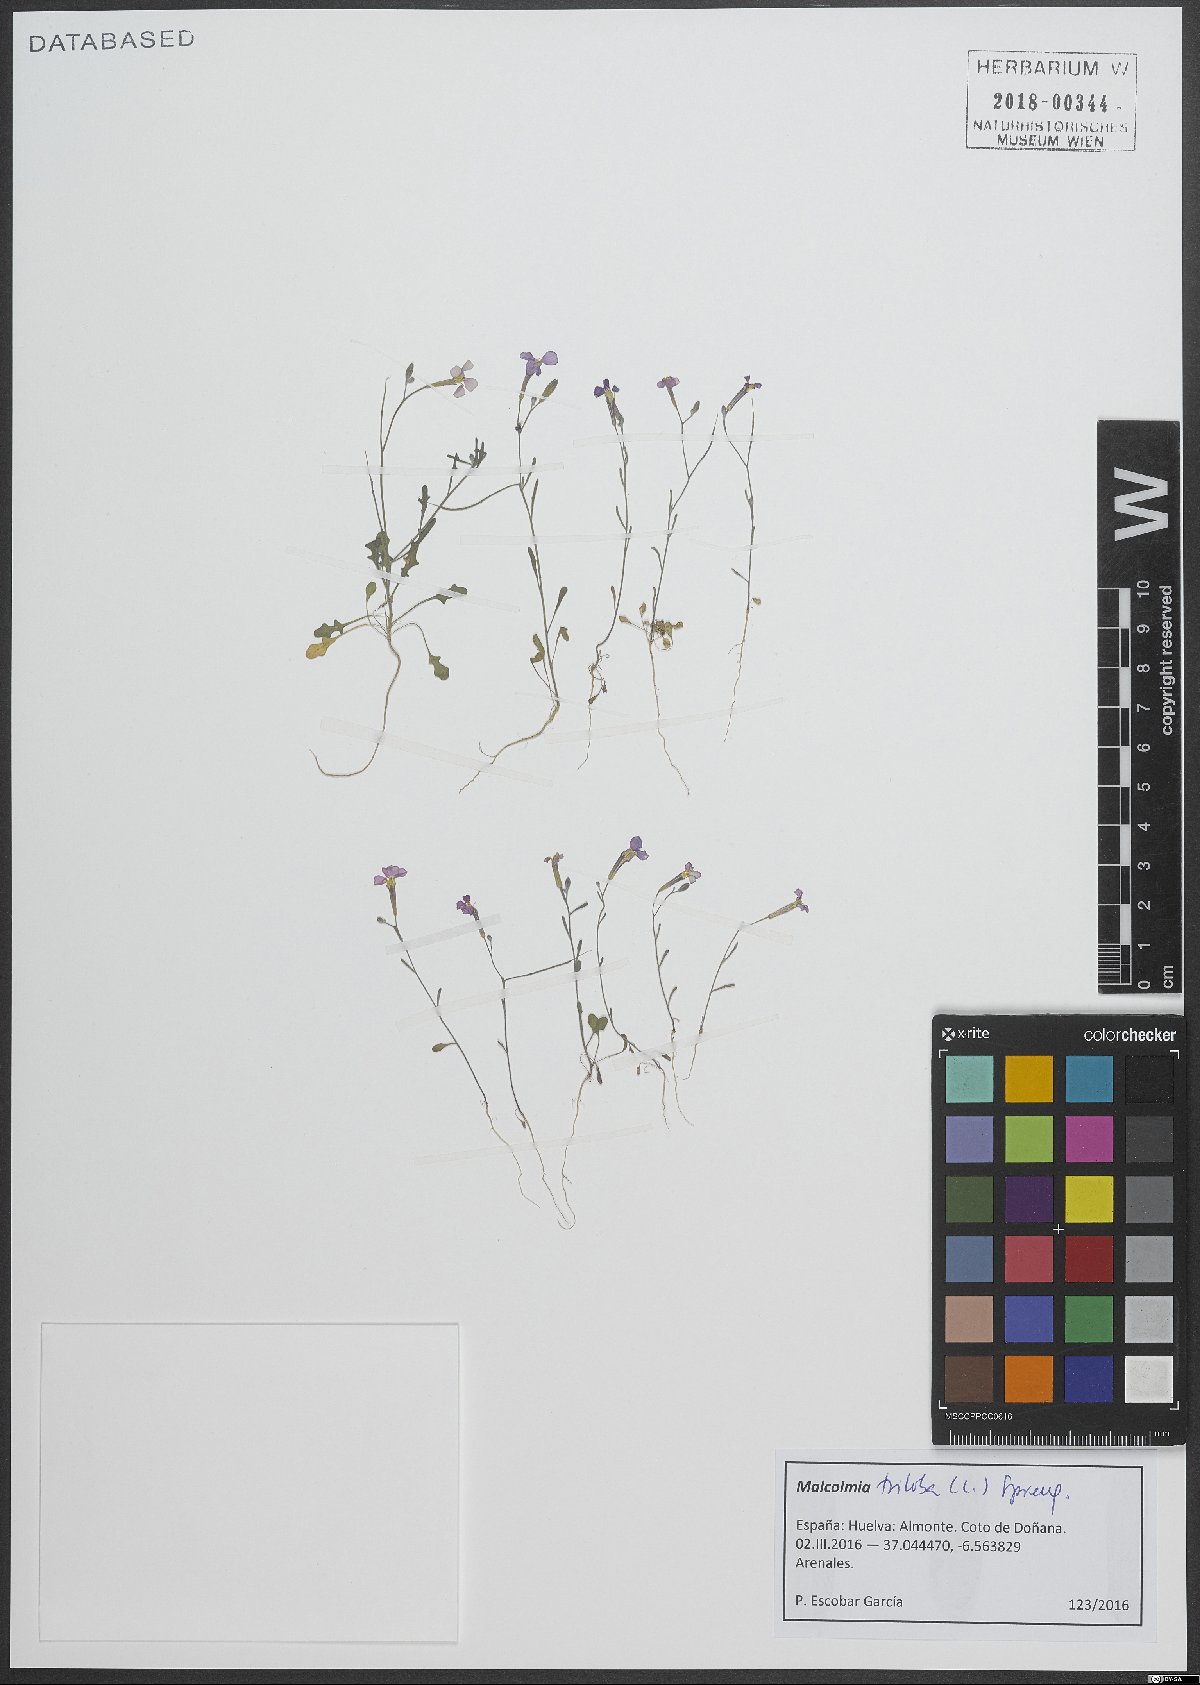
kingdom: Plantae
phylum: Tracheophyta
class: Magnoliopsida
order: Brassicales
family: Brassicaceae
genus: Marcuskochia
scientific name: Marcuskochia triloba
